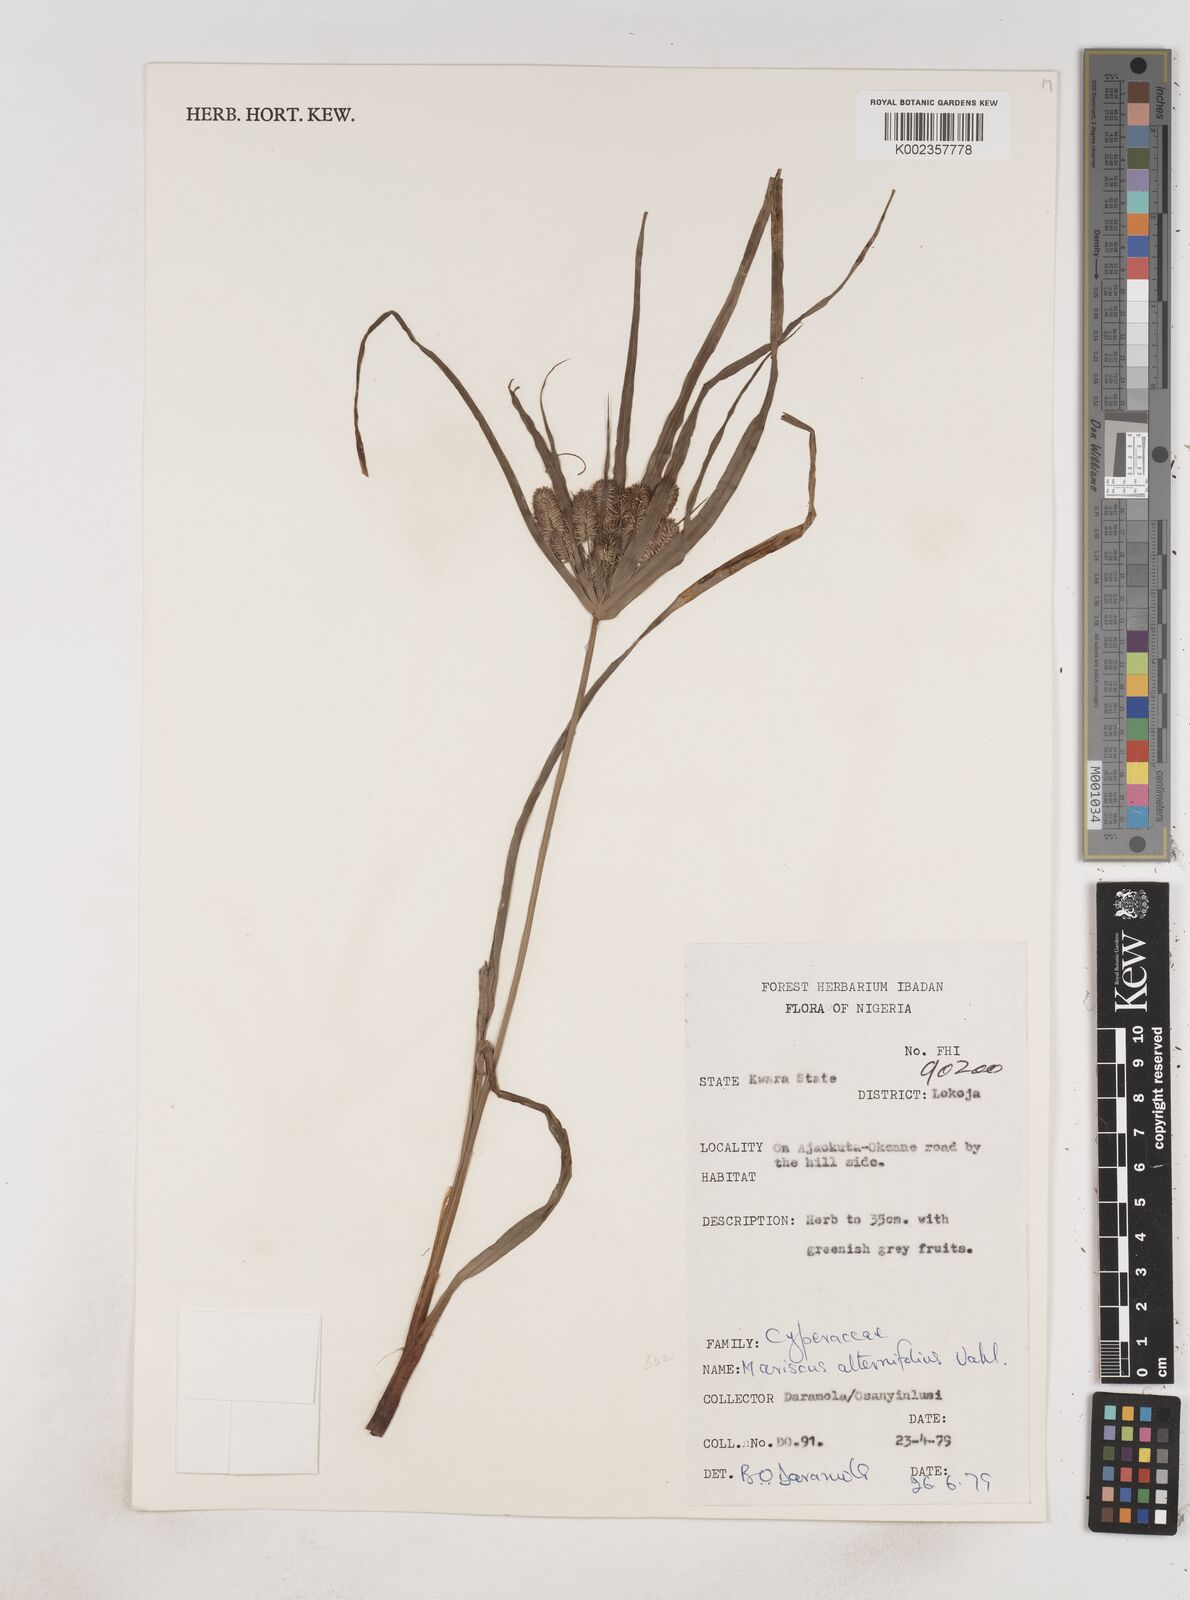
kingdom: Plantae
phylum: Tracheophyta
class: Liliopsida
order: Poales
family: Cyperaceae
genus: Cyperus
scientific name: Cyperus sublimis
